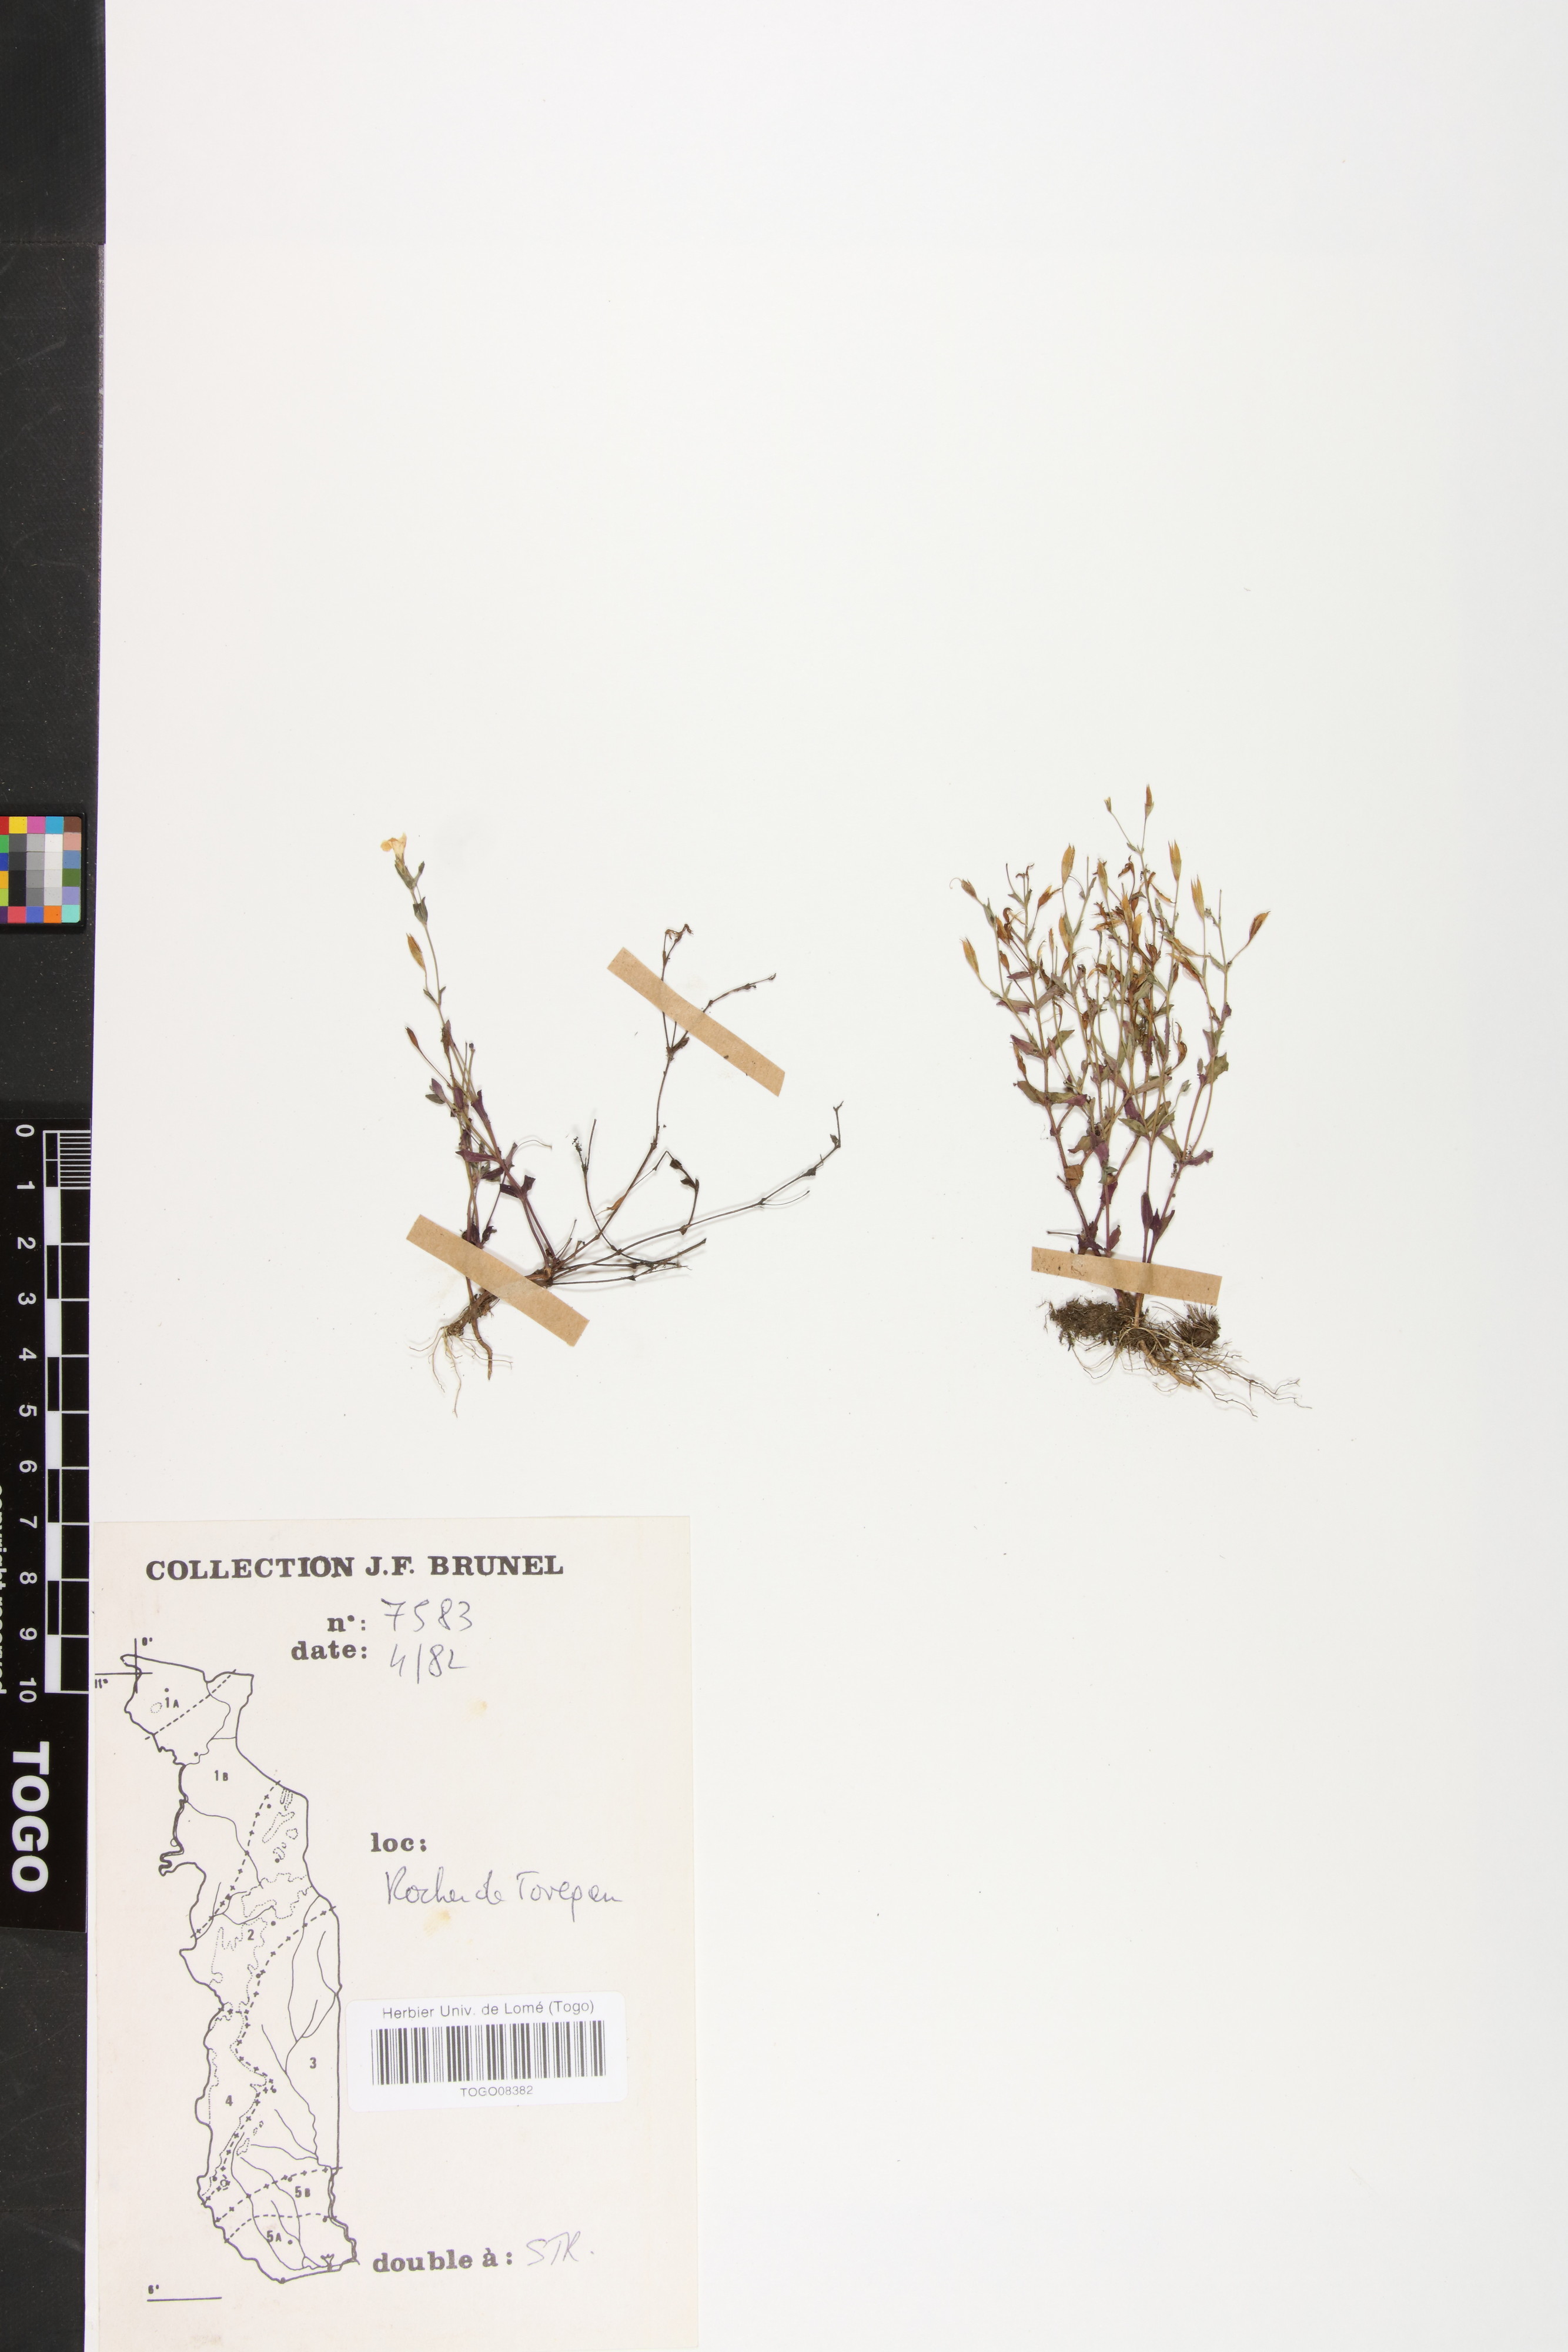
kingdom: Plantae
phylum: Tracheophyta
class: Magnoliopsida
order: Lamiales
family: Linderniaceae
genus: Linderniella
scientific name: Linderniella gracilis
